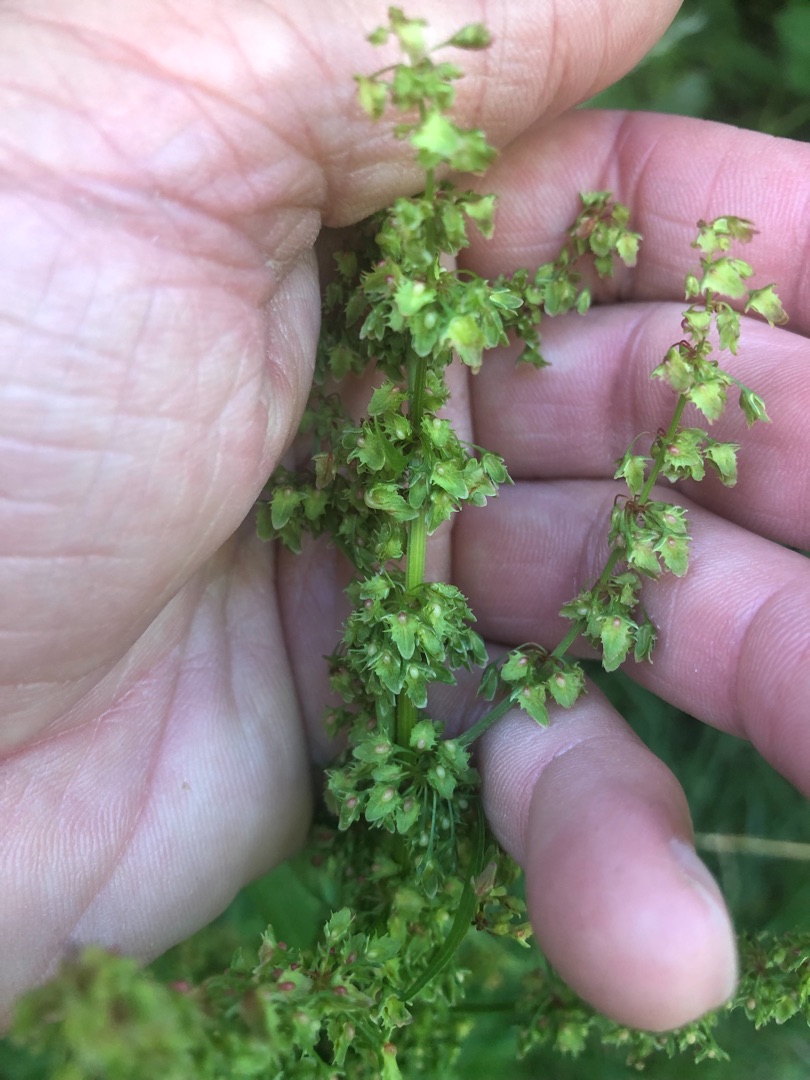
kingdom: Plantae
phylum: Tracheophyta
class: Magnoliopsida
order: Caryophyllales
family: Polygonaceae
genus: Rumex
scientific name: Rumex obtusifolius
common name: Butbladet skræppe
